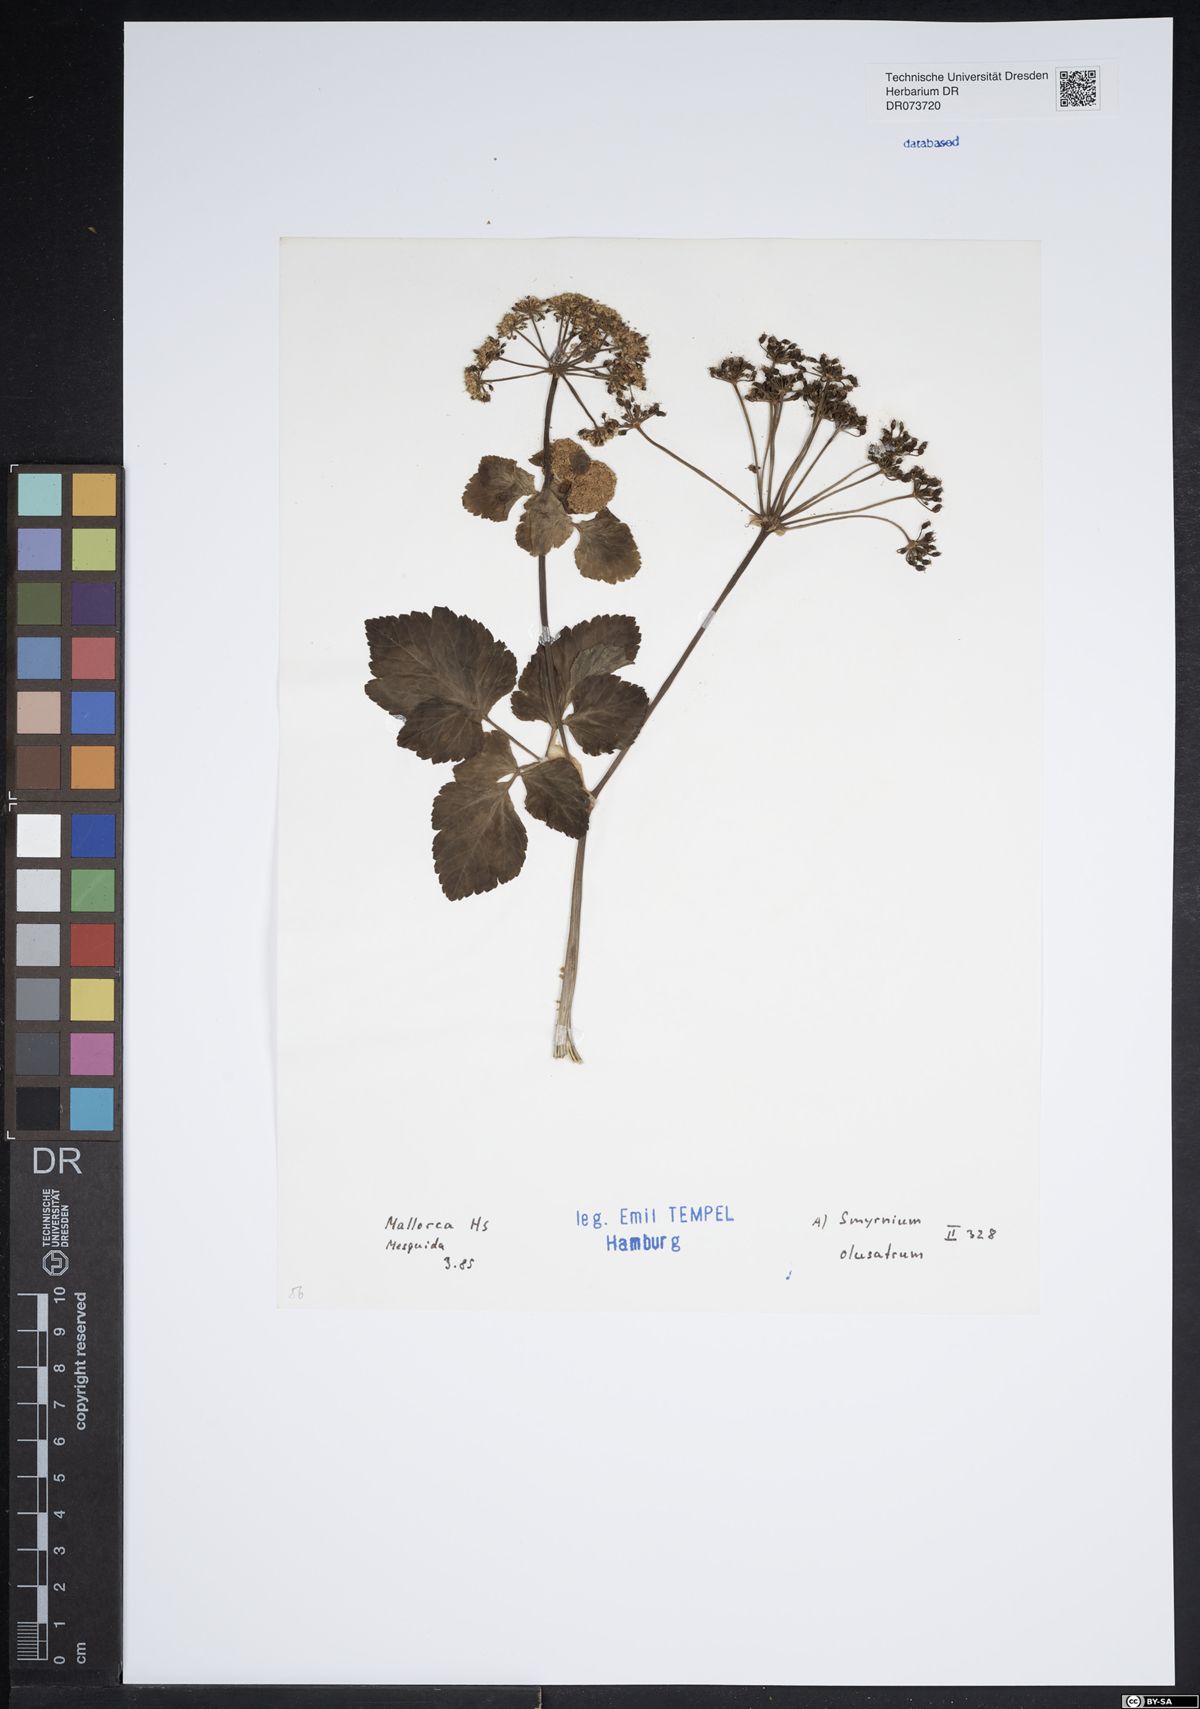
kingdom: Plantae
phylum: Tracheophyta
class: Magnoliopsida
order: Apiales
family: Apiaceae
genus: Smyrnium
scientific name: Smyrnium olusatrum
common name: Alexanders
